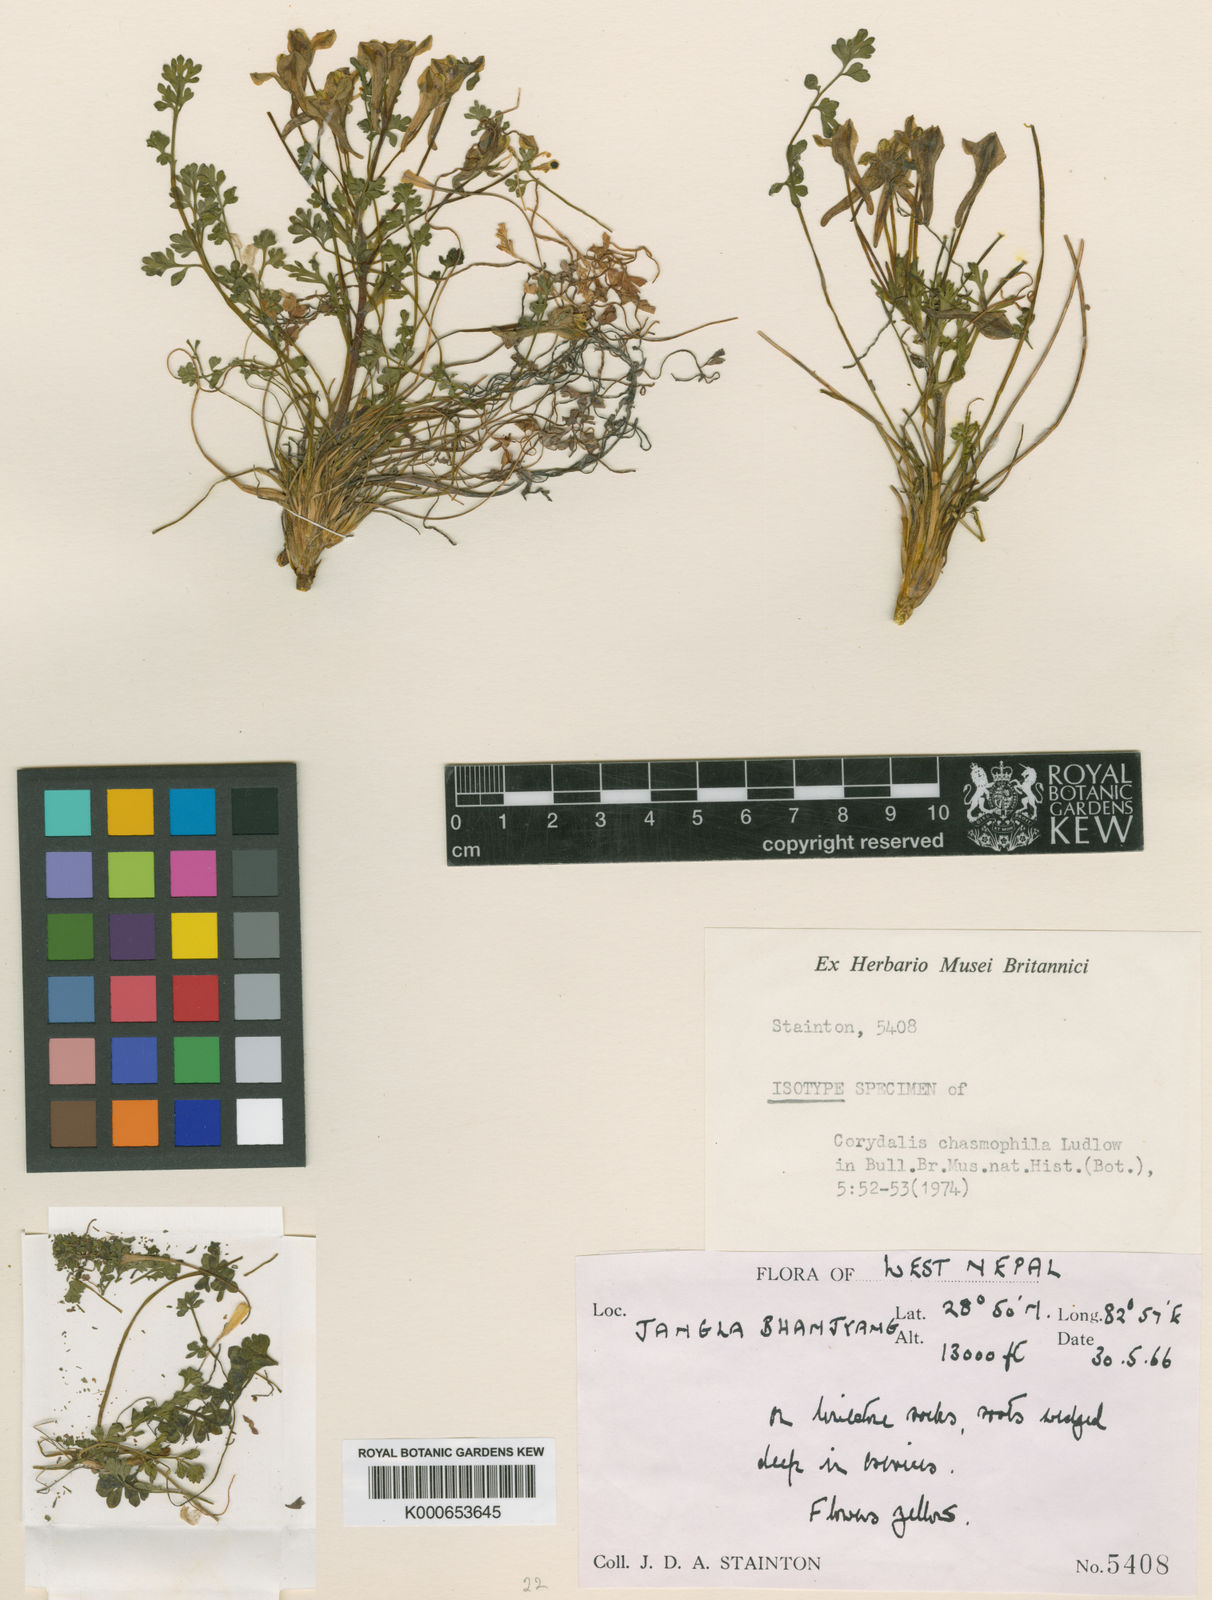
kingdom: Plantae
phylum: Tracheophyta
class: Magnoliopsida
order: Ranunculales
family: Papaveraceae
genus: Corydalis
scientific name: Corydalis staintonii
